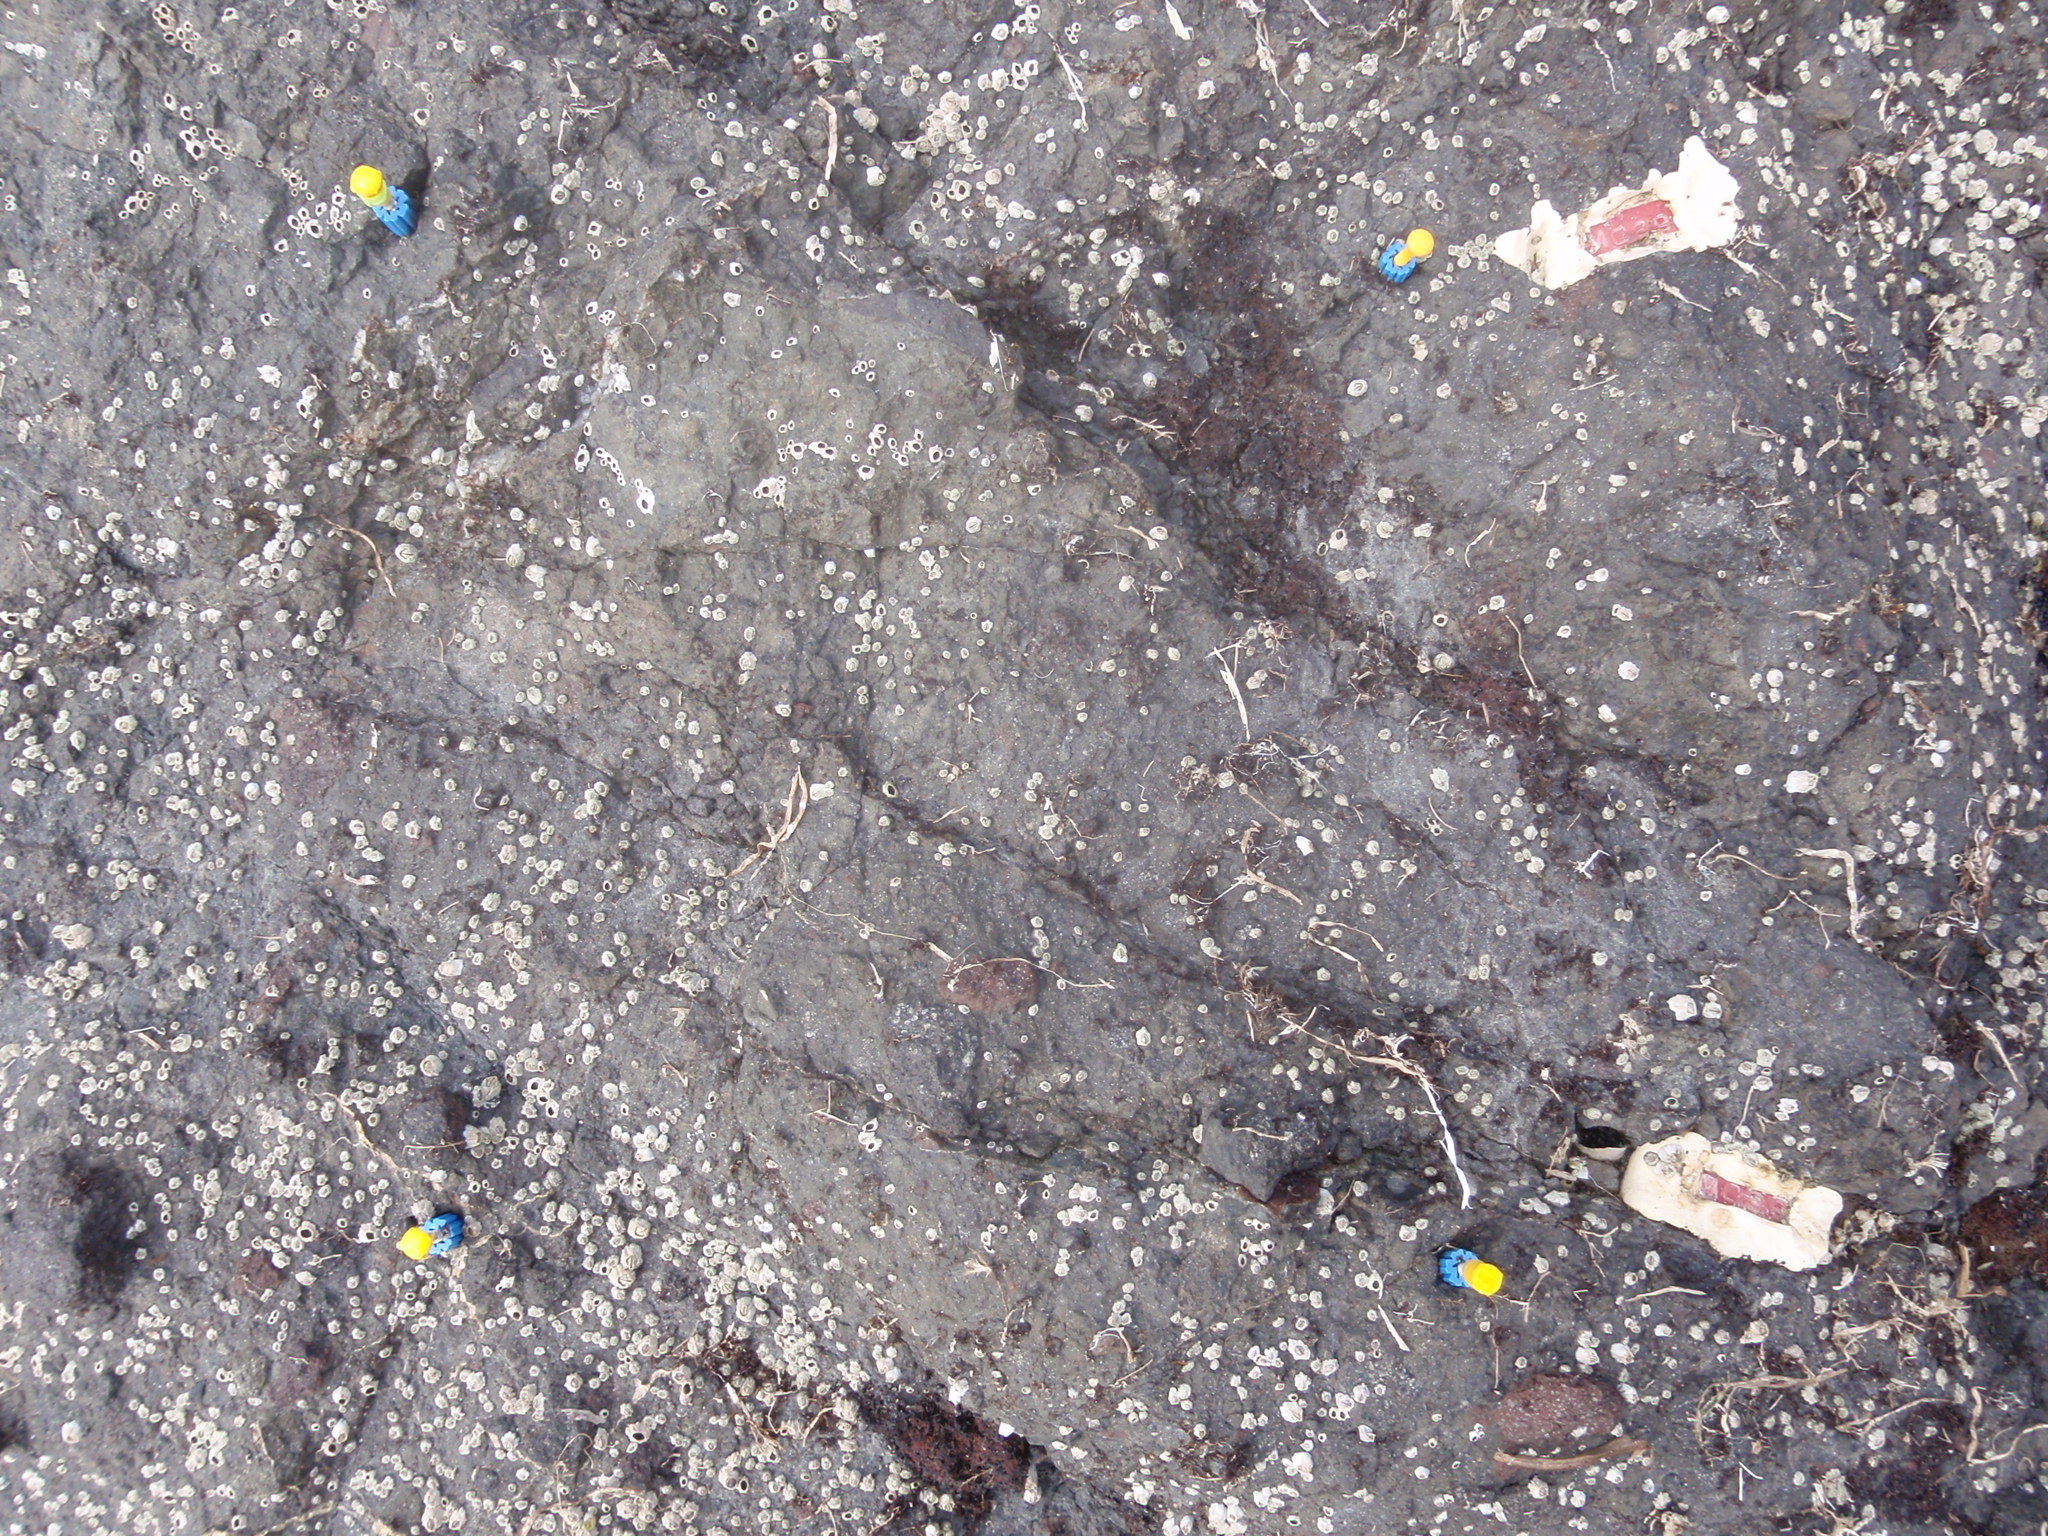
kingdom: Plantae
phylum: Rhodophyta
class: Florideophyceae
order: Gigartinales
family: Endocladiaceae
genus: Gloiopeltis
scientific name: Gloiopeltis furcata
